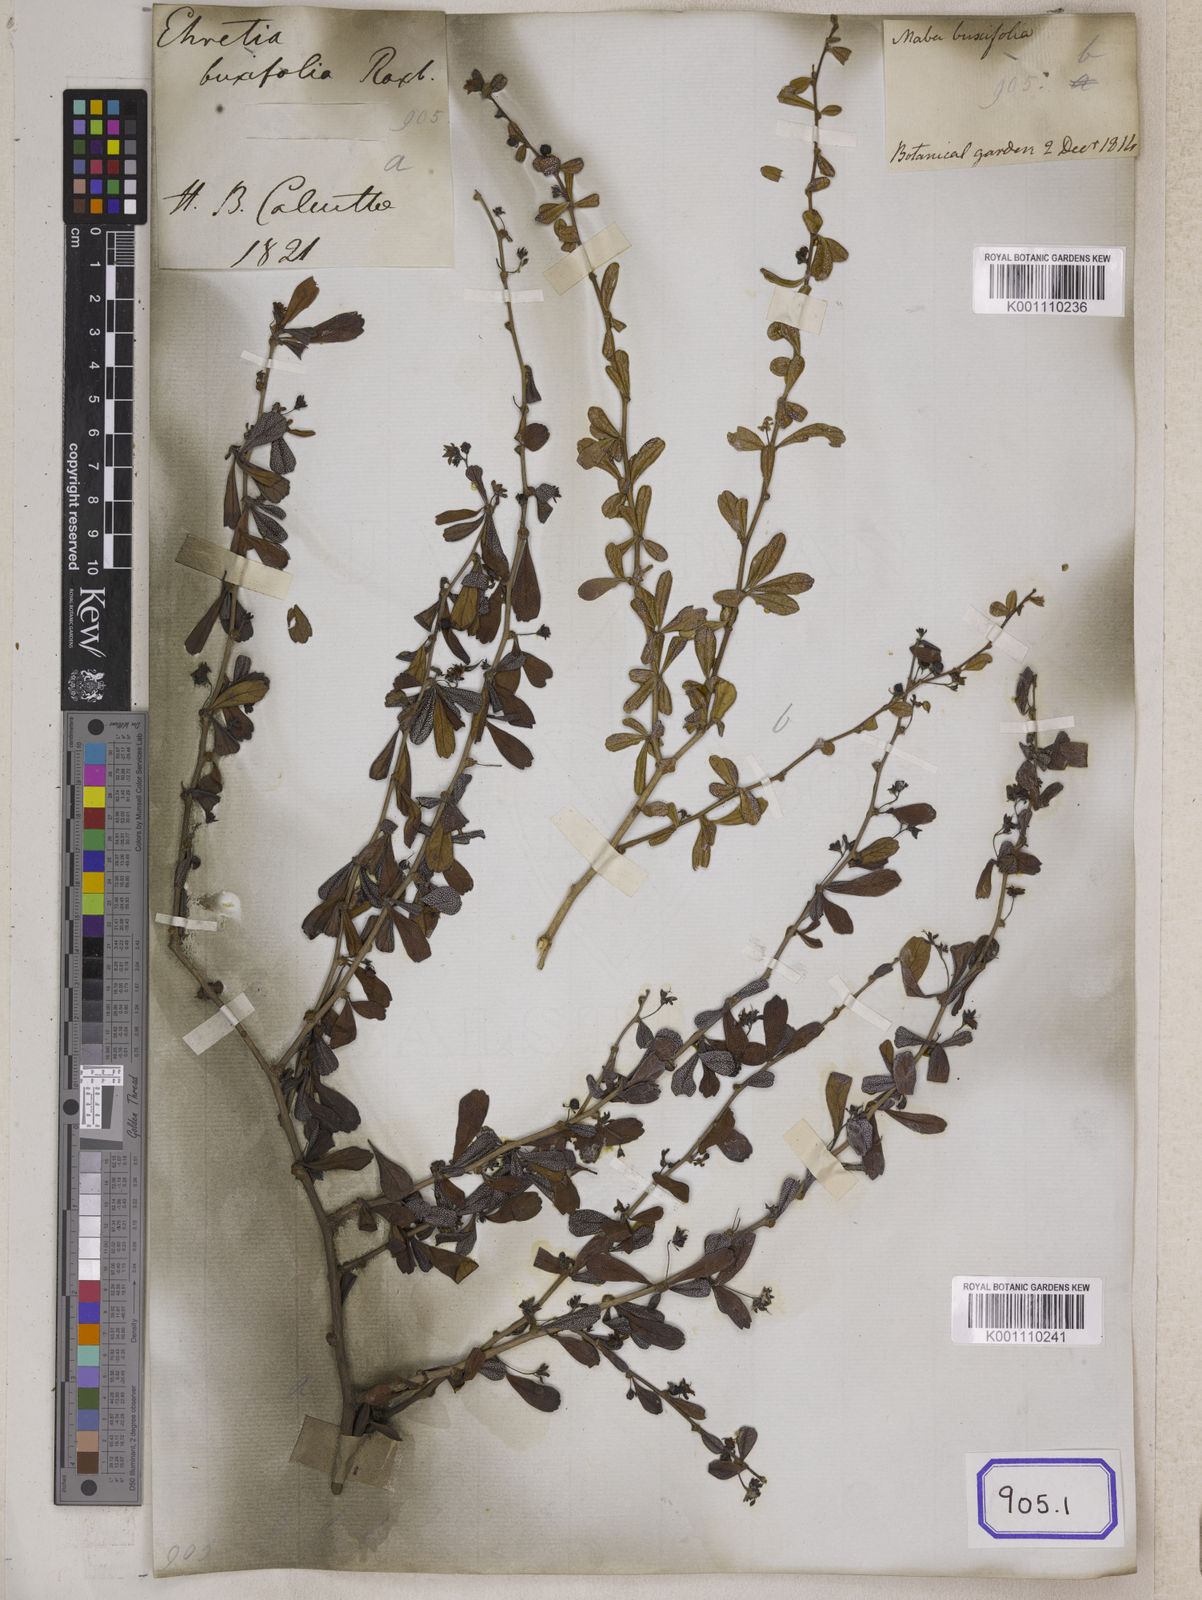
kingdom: Plantae
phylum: Tracheophyta
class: Magnoliopsida
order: Boraginales
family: Ehretiaceae
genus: Ehretia
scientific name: Ehretia microphylla
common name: Fukien-tea
